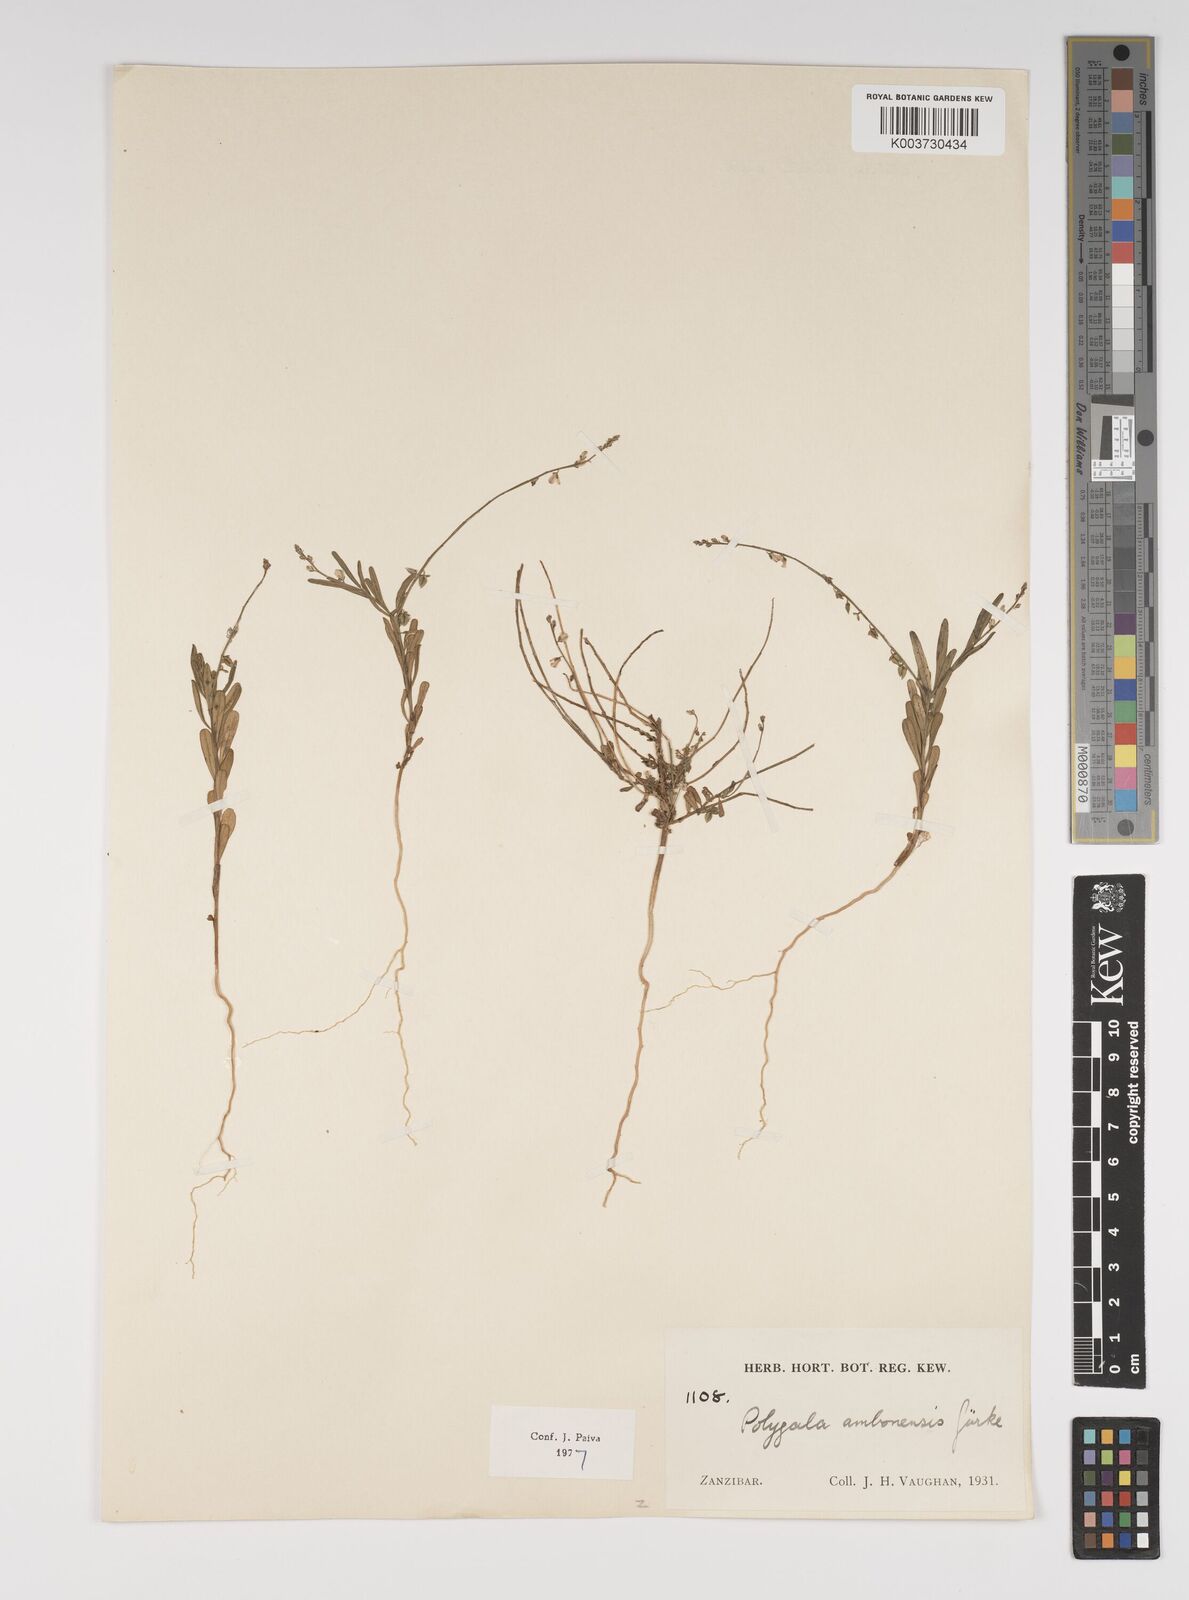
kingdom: Plantae
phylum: Tracheophyta
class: Magnoliopsida
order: Fabales
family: Polygalaceae
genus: Polygala
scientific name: Polygala amboniensis
